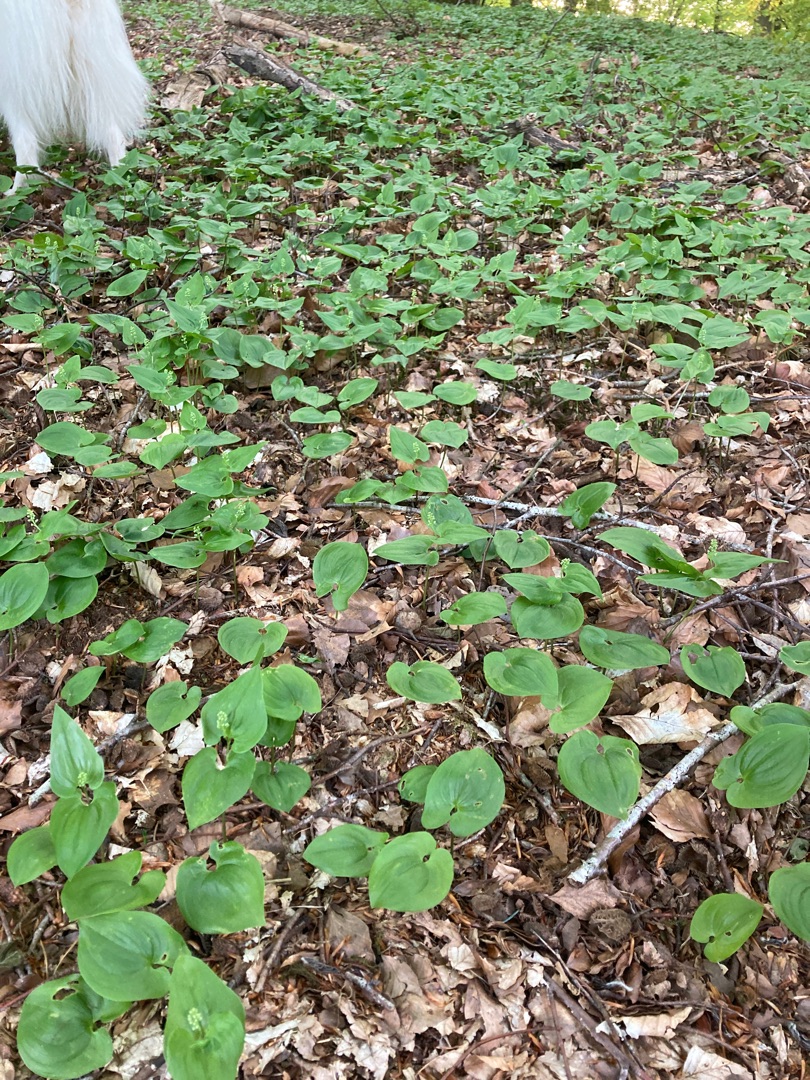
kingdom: Plantae
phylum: Tracheophyta
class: Liliopsida
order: Asparagales
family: Asparagaceae
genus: Maianthemum
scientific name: Maianthemum bifolium
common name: Majblomst
